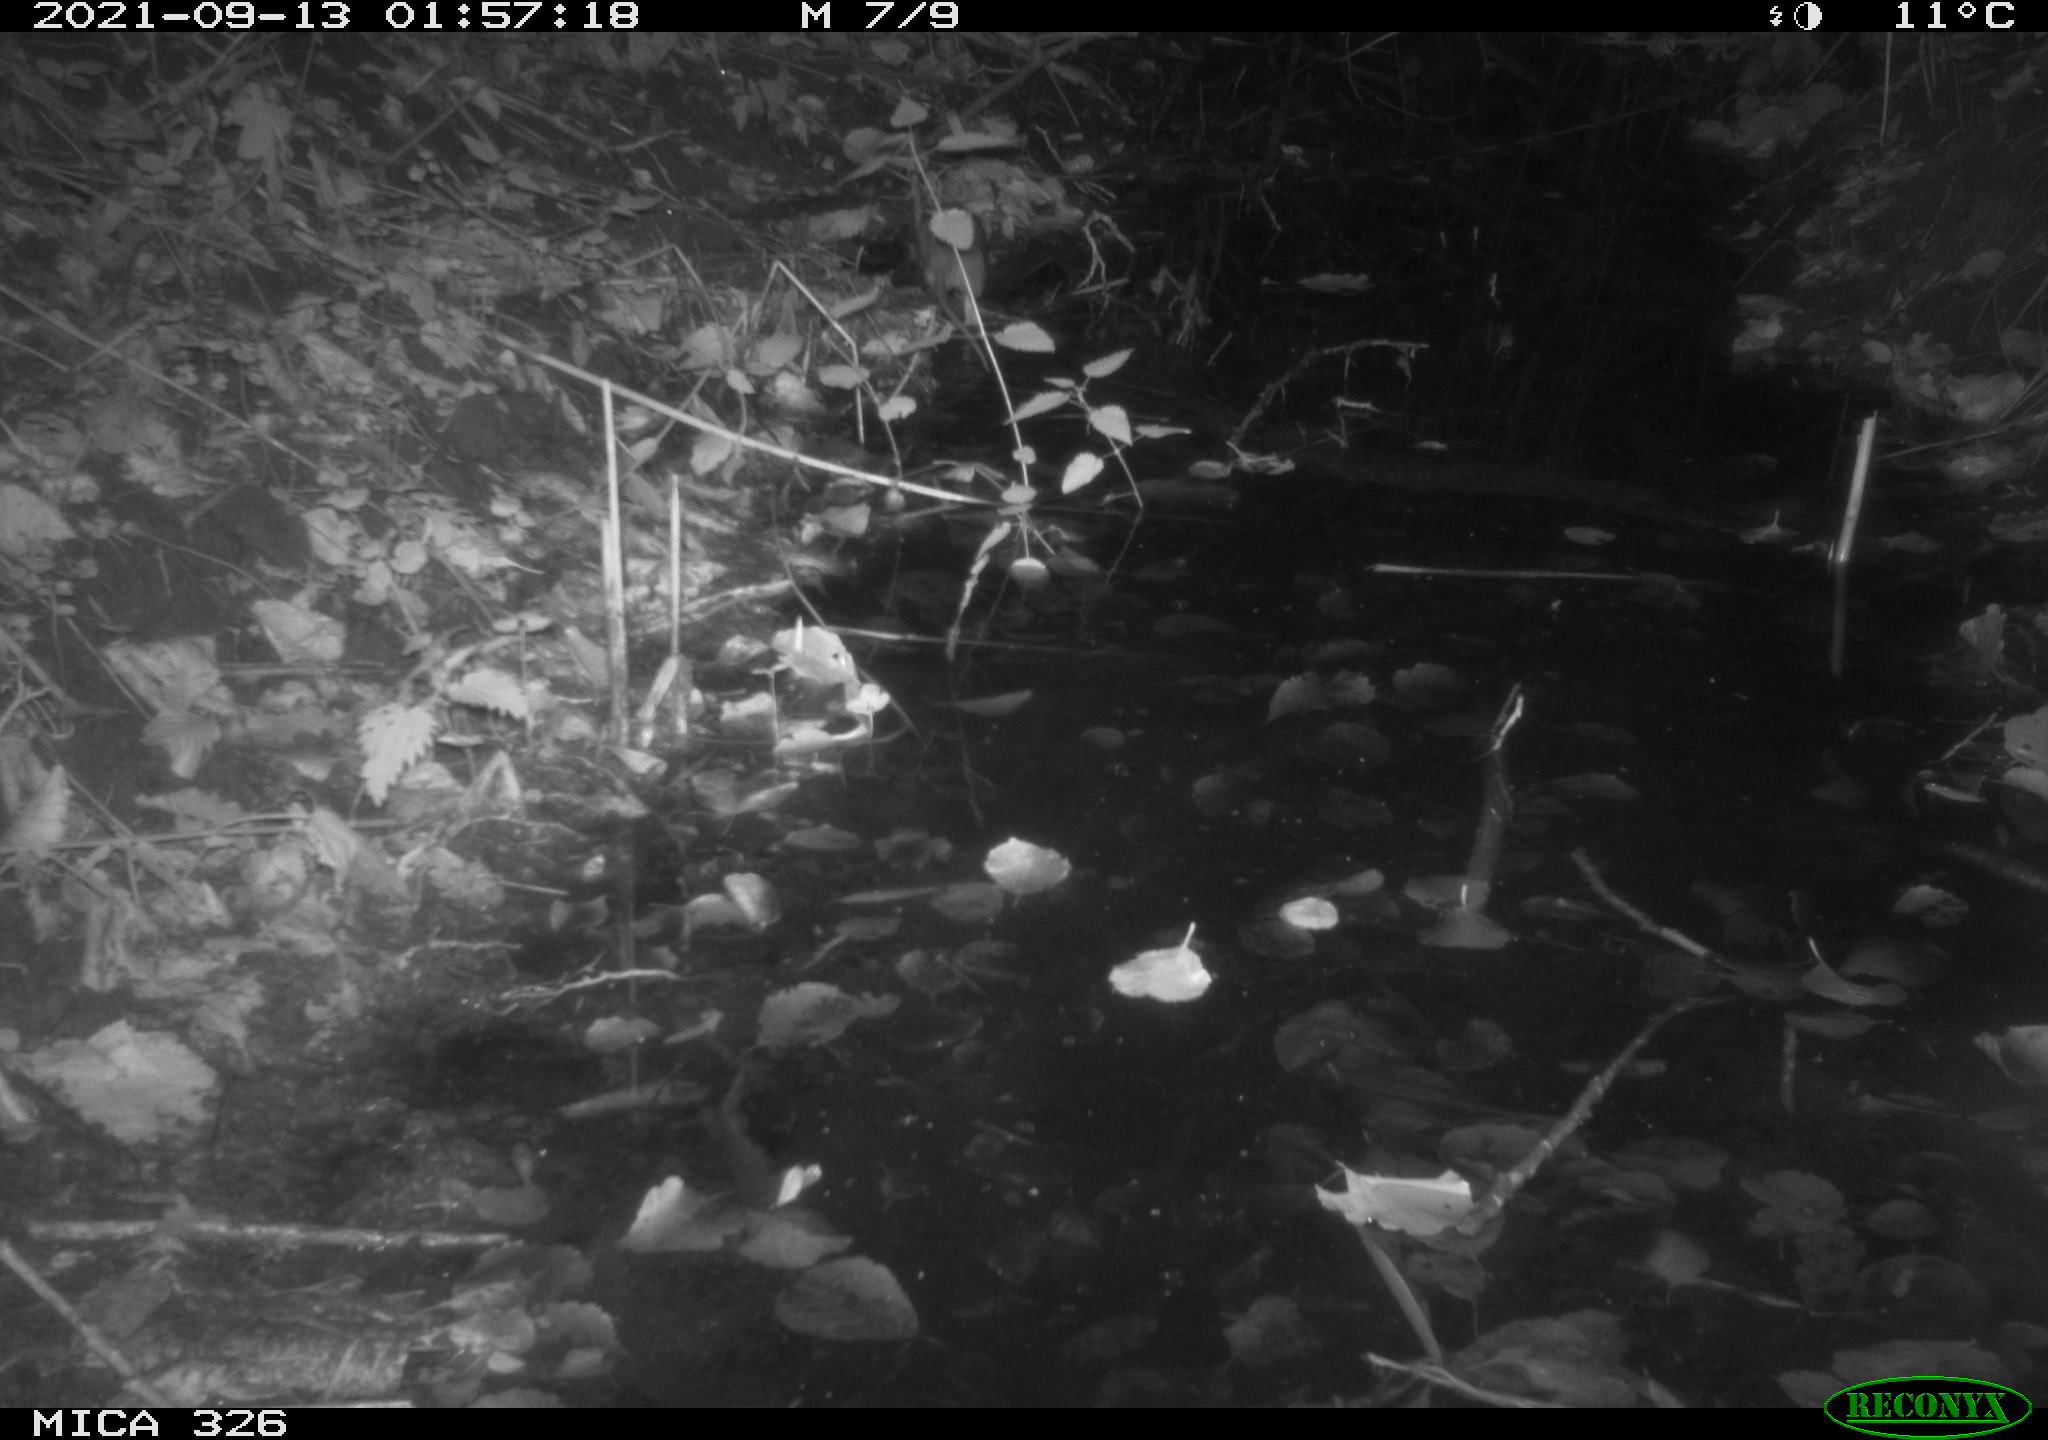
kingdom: Animalia
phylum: Chordata
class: Mammalia
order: Rodentia
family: Muridae
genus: Rattus
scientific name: Rattus norvegicus
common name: Brown rat
